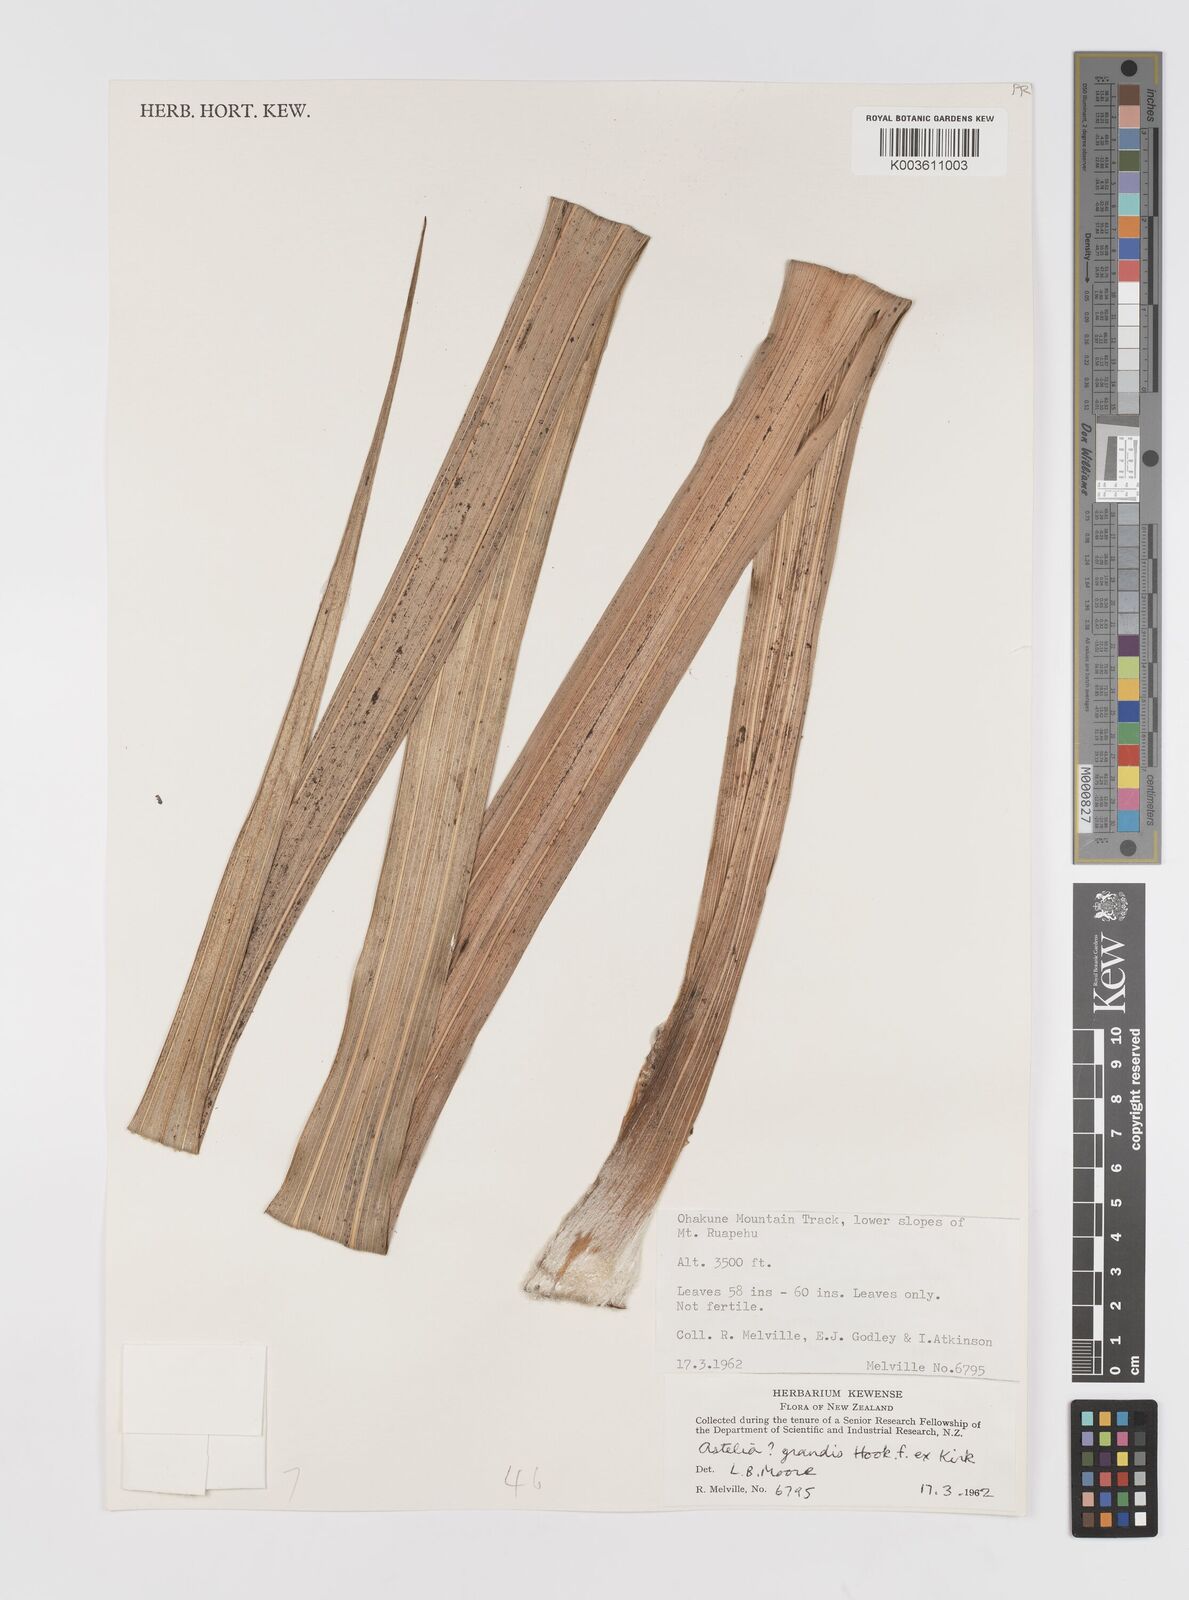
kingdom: Plantae
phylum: Tracheophyta
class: Liliopsida
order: Asparagales
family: Asteliaceae
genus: Astelia
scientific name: Astelia grandis
